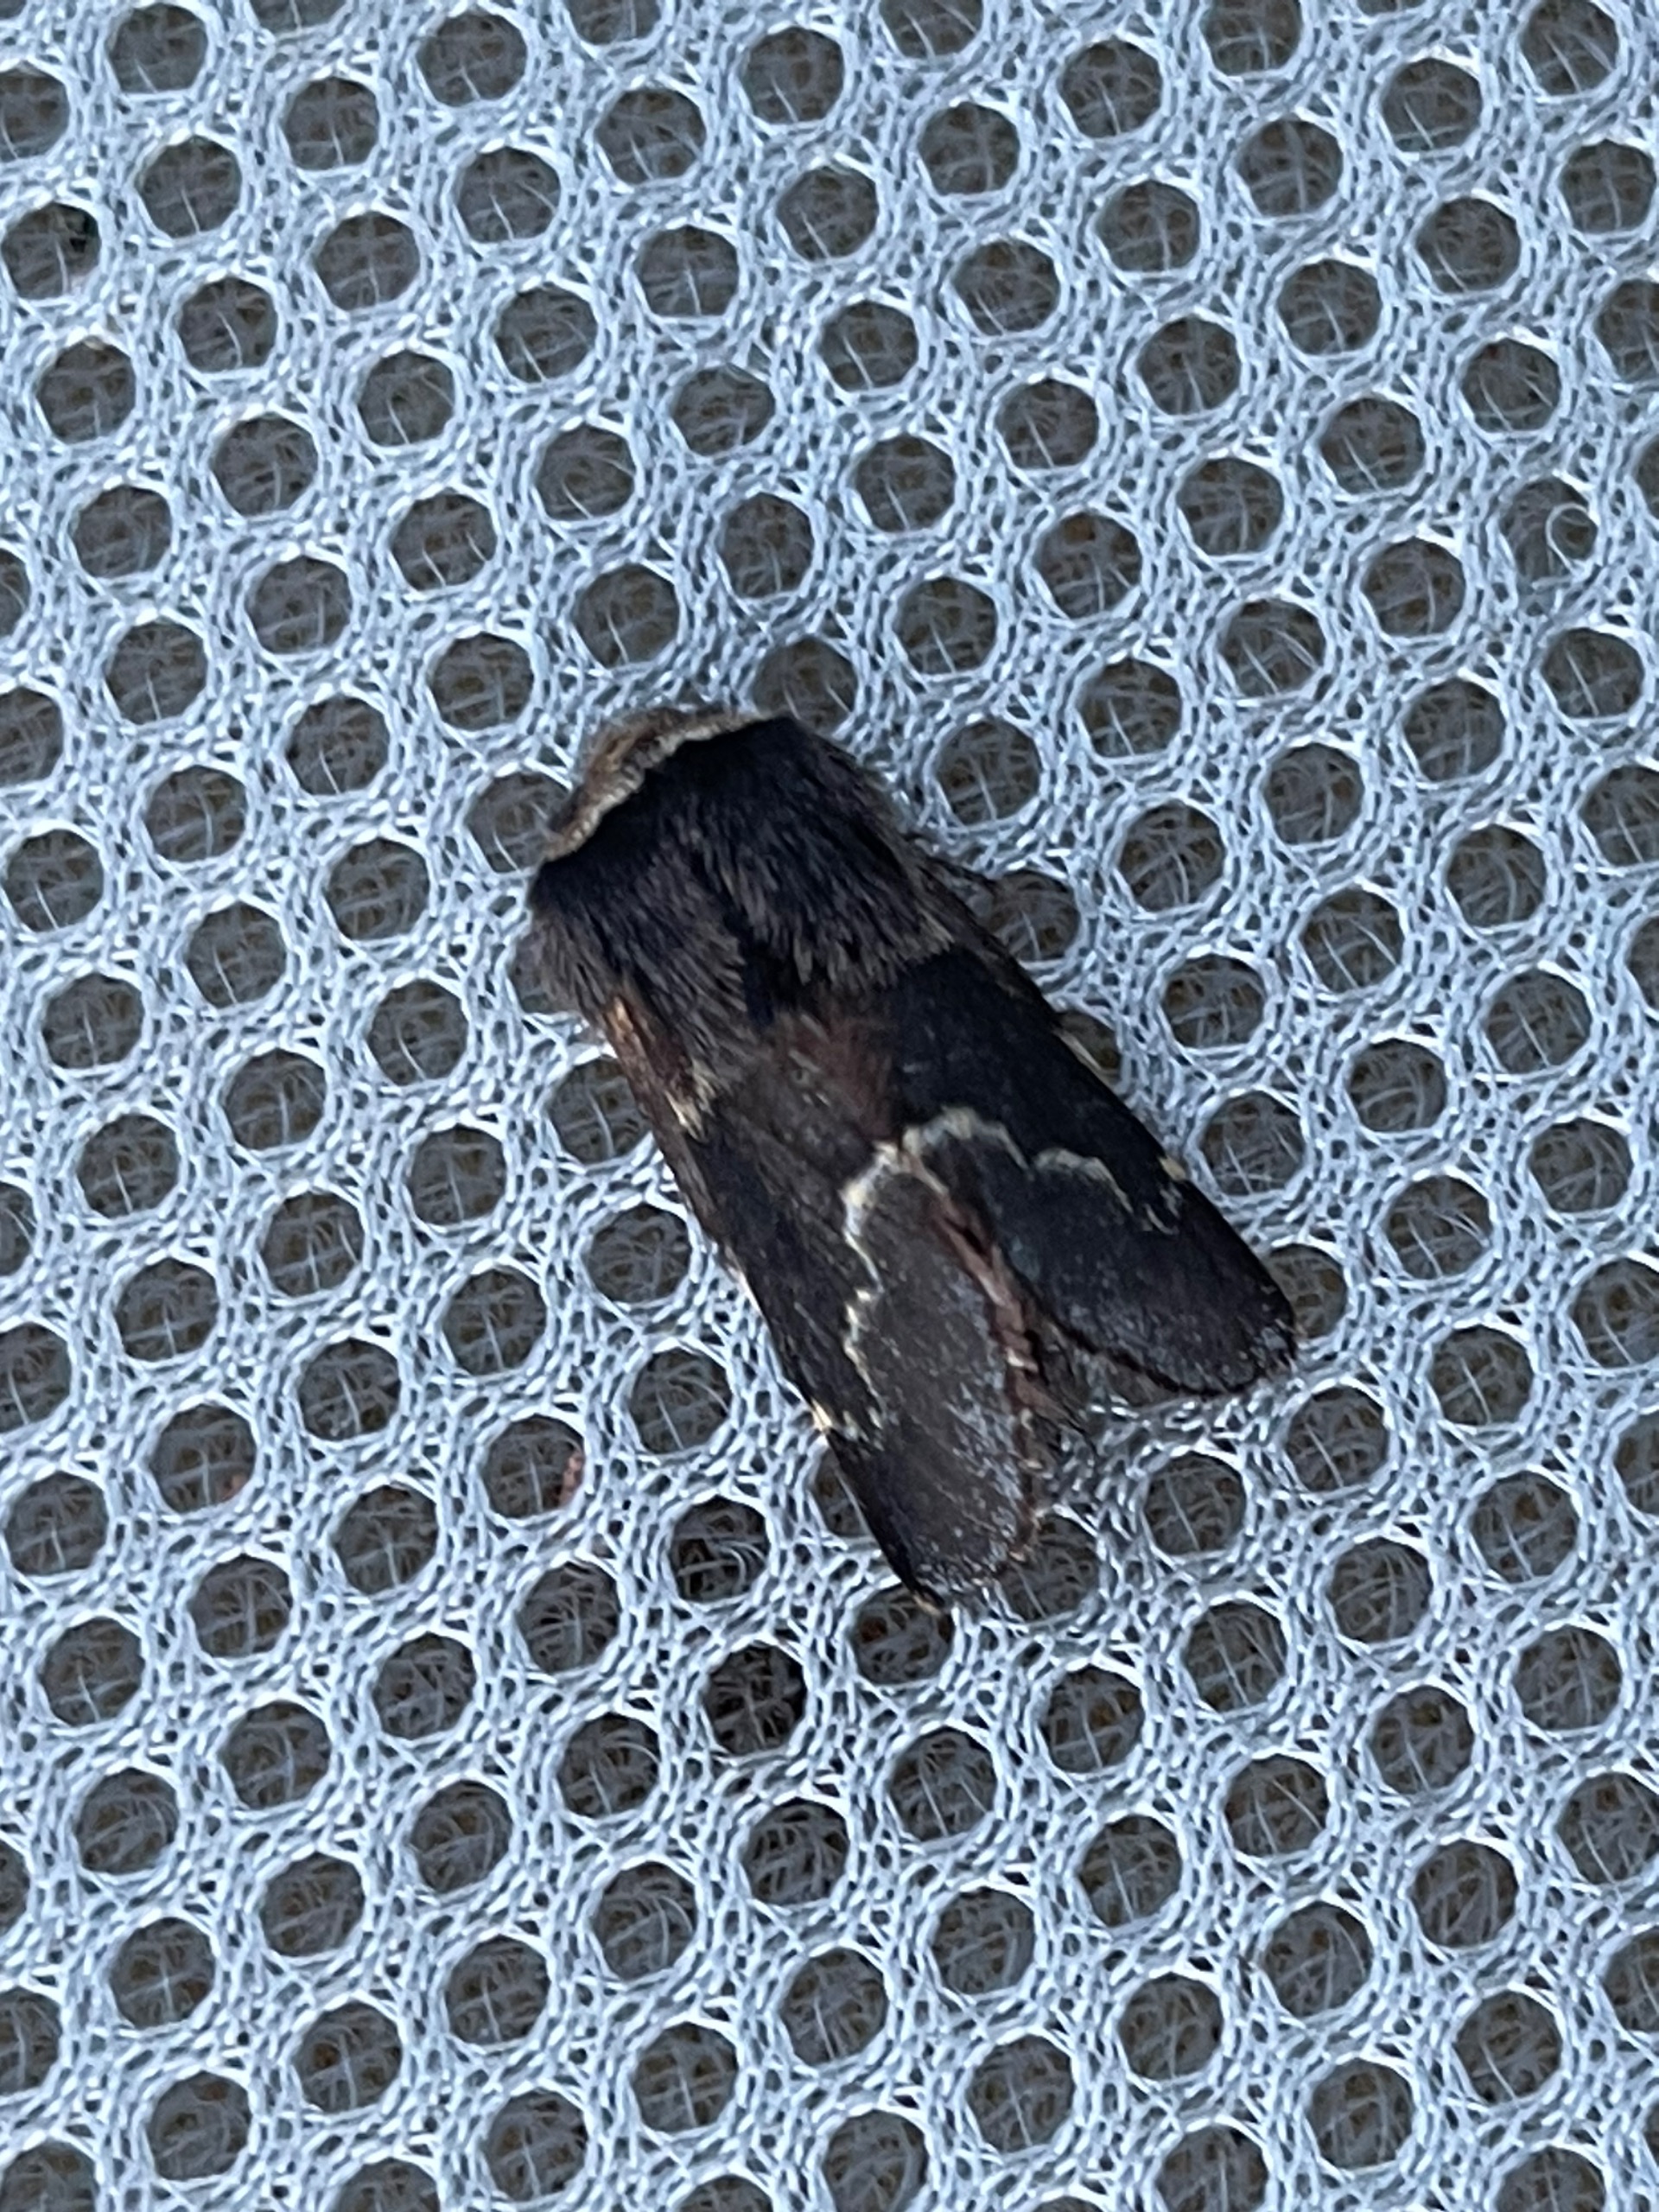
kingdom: Animalia
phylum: Arthropoda
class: Insecta
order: Lepidoptera
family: Lasiocampidae
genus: Poecilocampa
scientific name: Poecilocampa populi
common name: Poppelspinder
